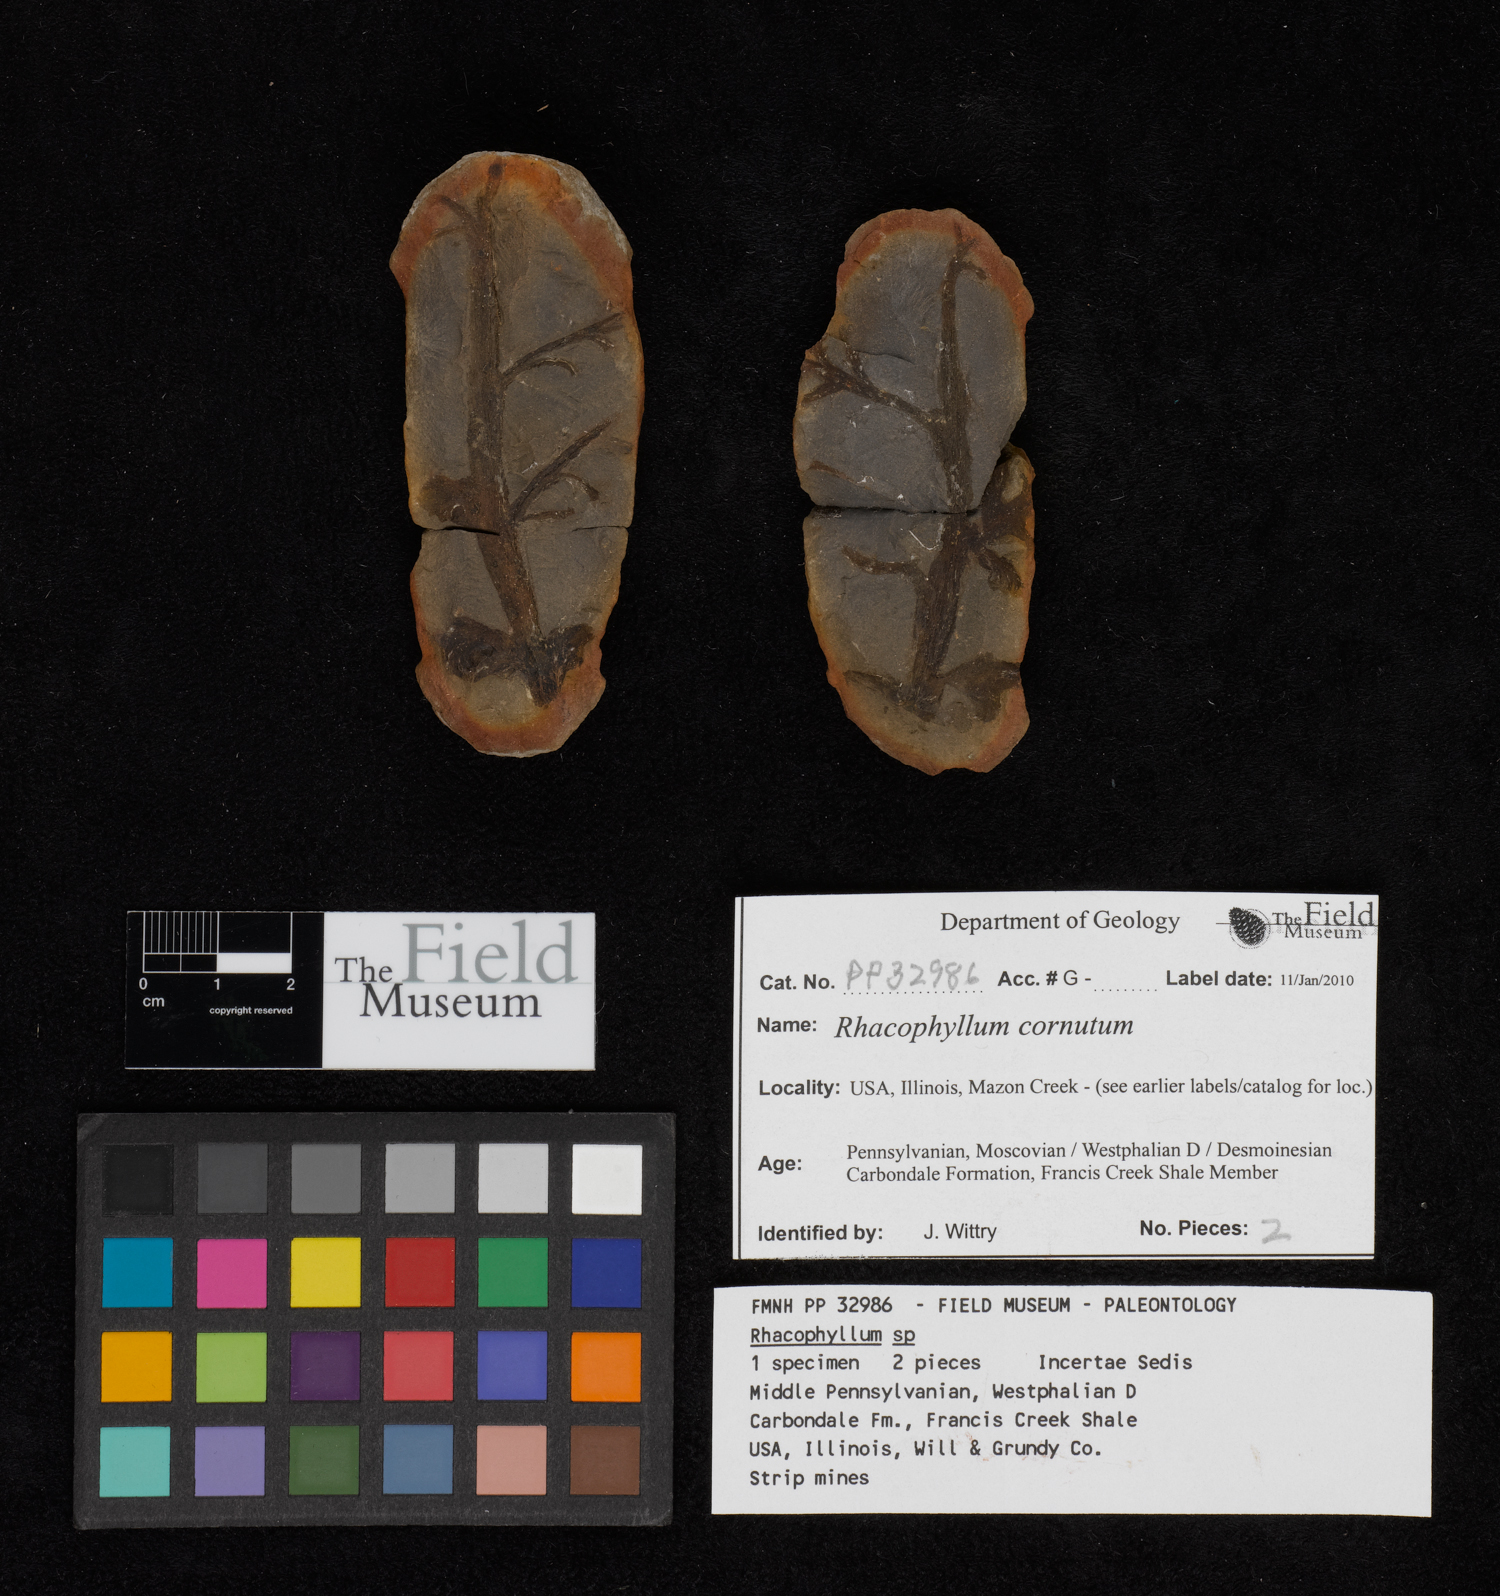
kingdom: Plantae
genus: Rhacophyllum
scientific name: Rhacophyllum
